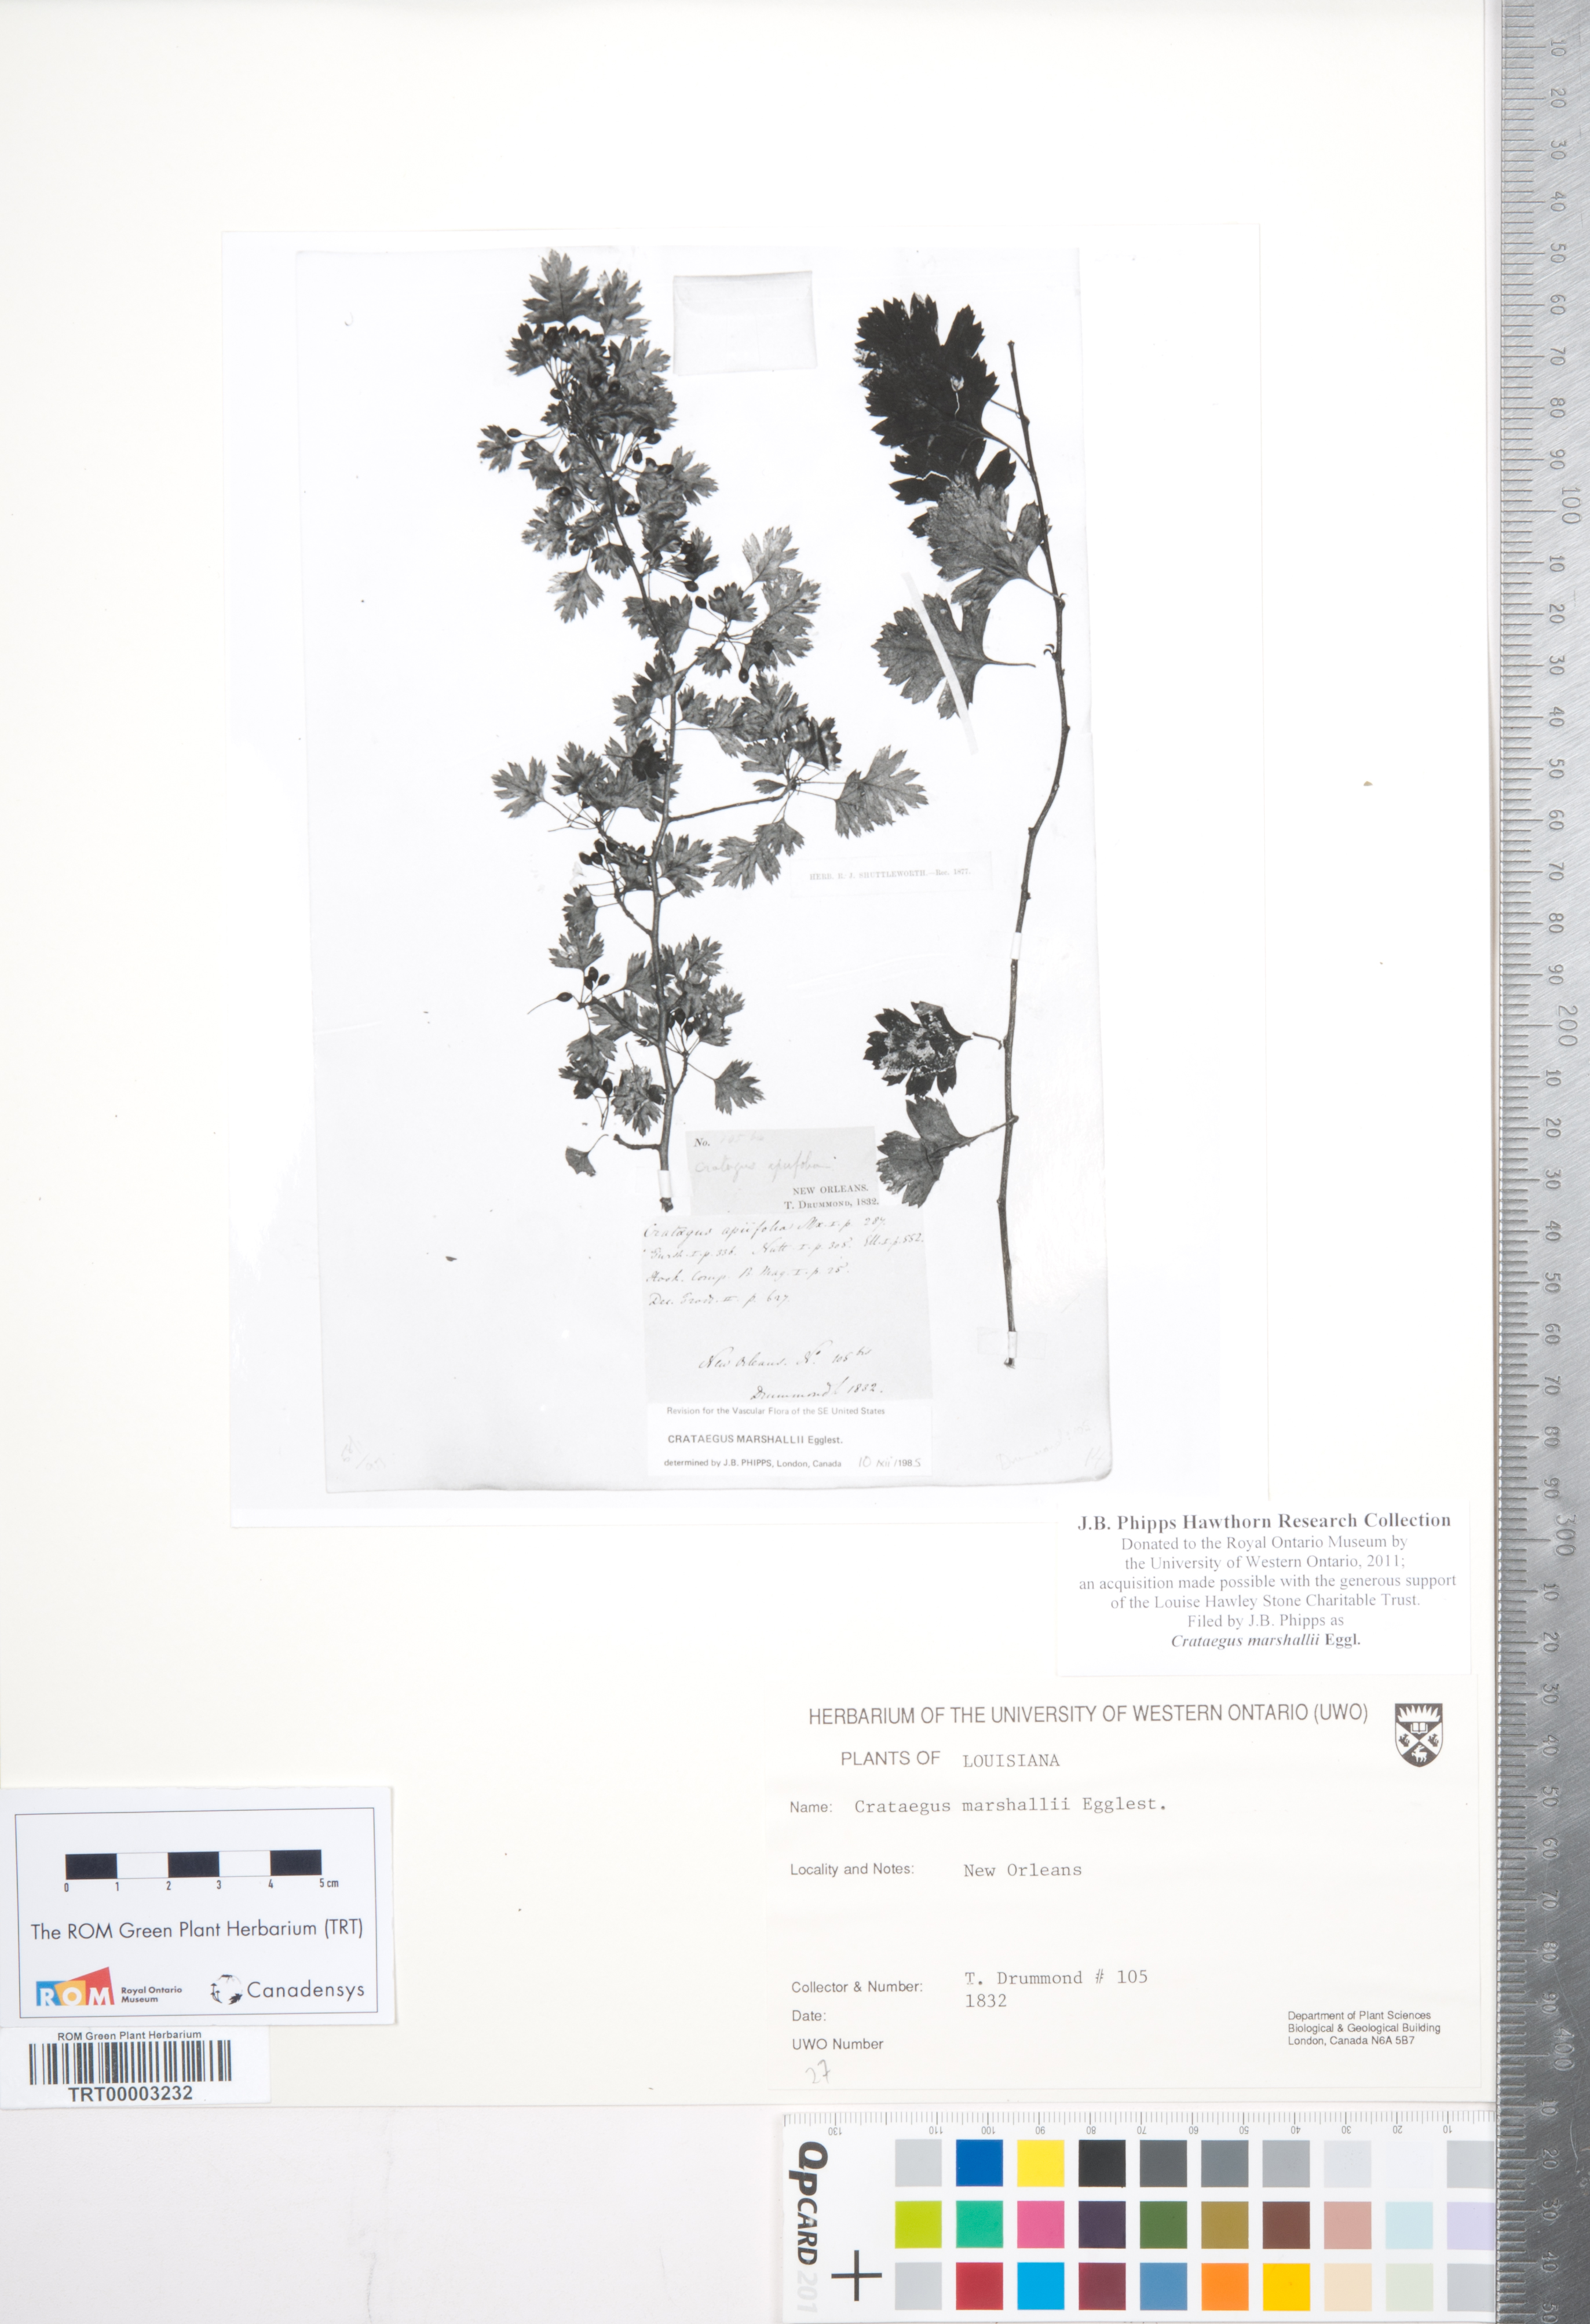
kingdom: Plantae
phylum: Tracheophyta
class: Magnoliopsida
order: Rosales
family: Rosaceae
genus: Crataegus
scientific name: Crataegus marshallii
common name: Parsley-hawthorn
